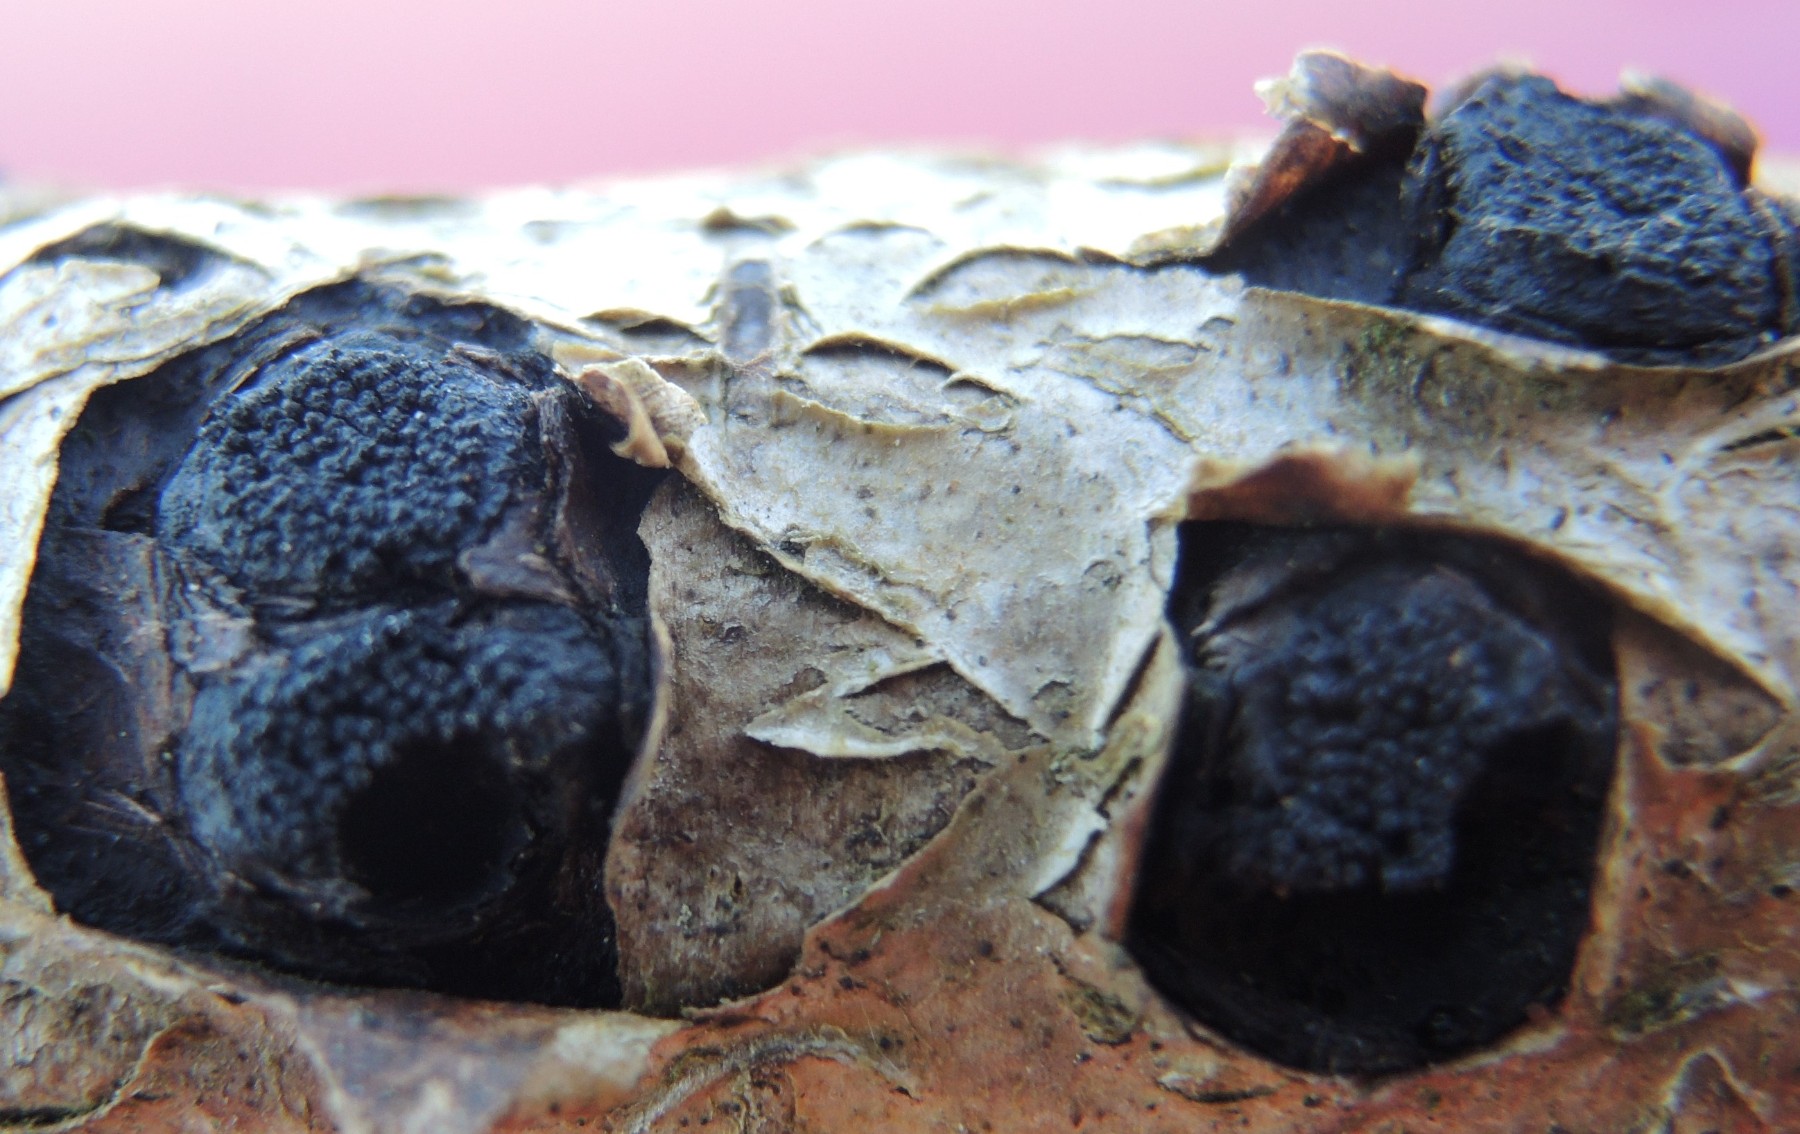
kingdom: Fungi
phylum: Ascomycota
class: Sordariomycetes
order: Xylariales
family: Diatrypaceae
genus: Eutypella
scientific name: Eutypella sorbi
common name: rønne-kulskorpe
